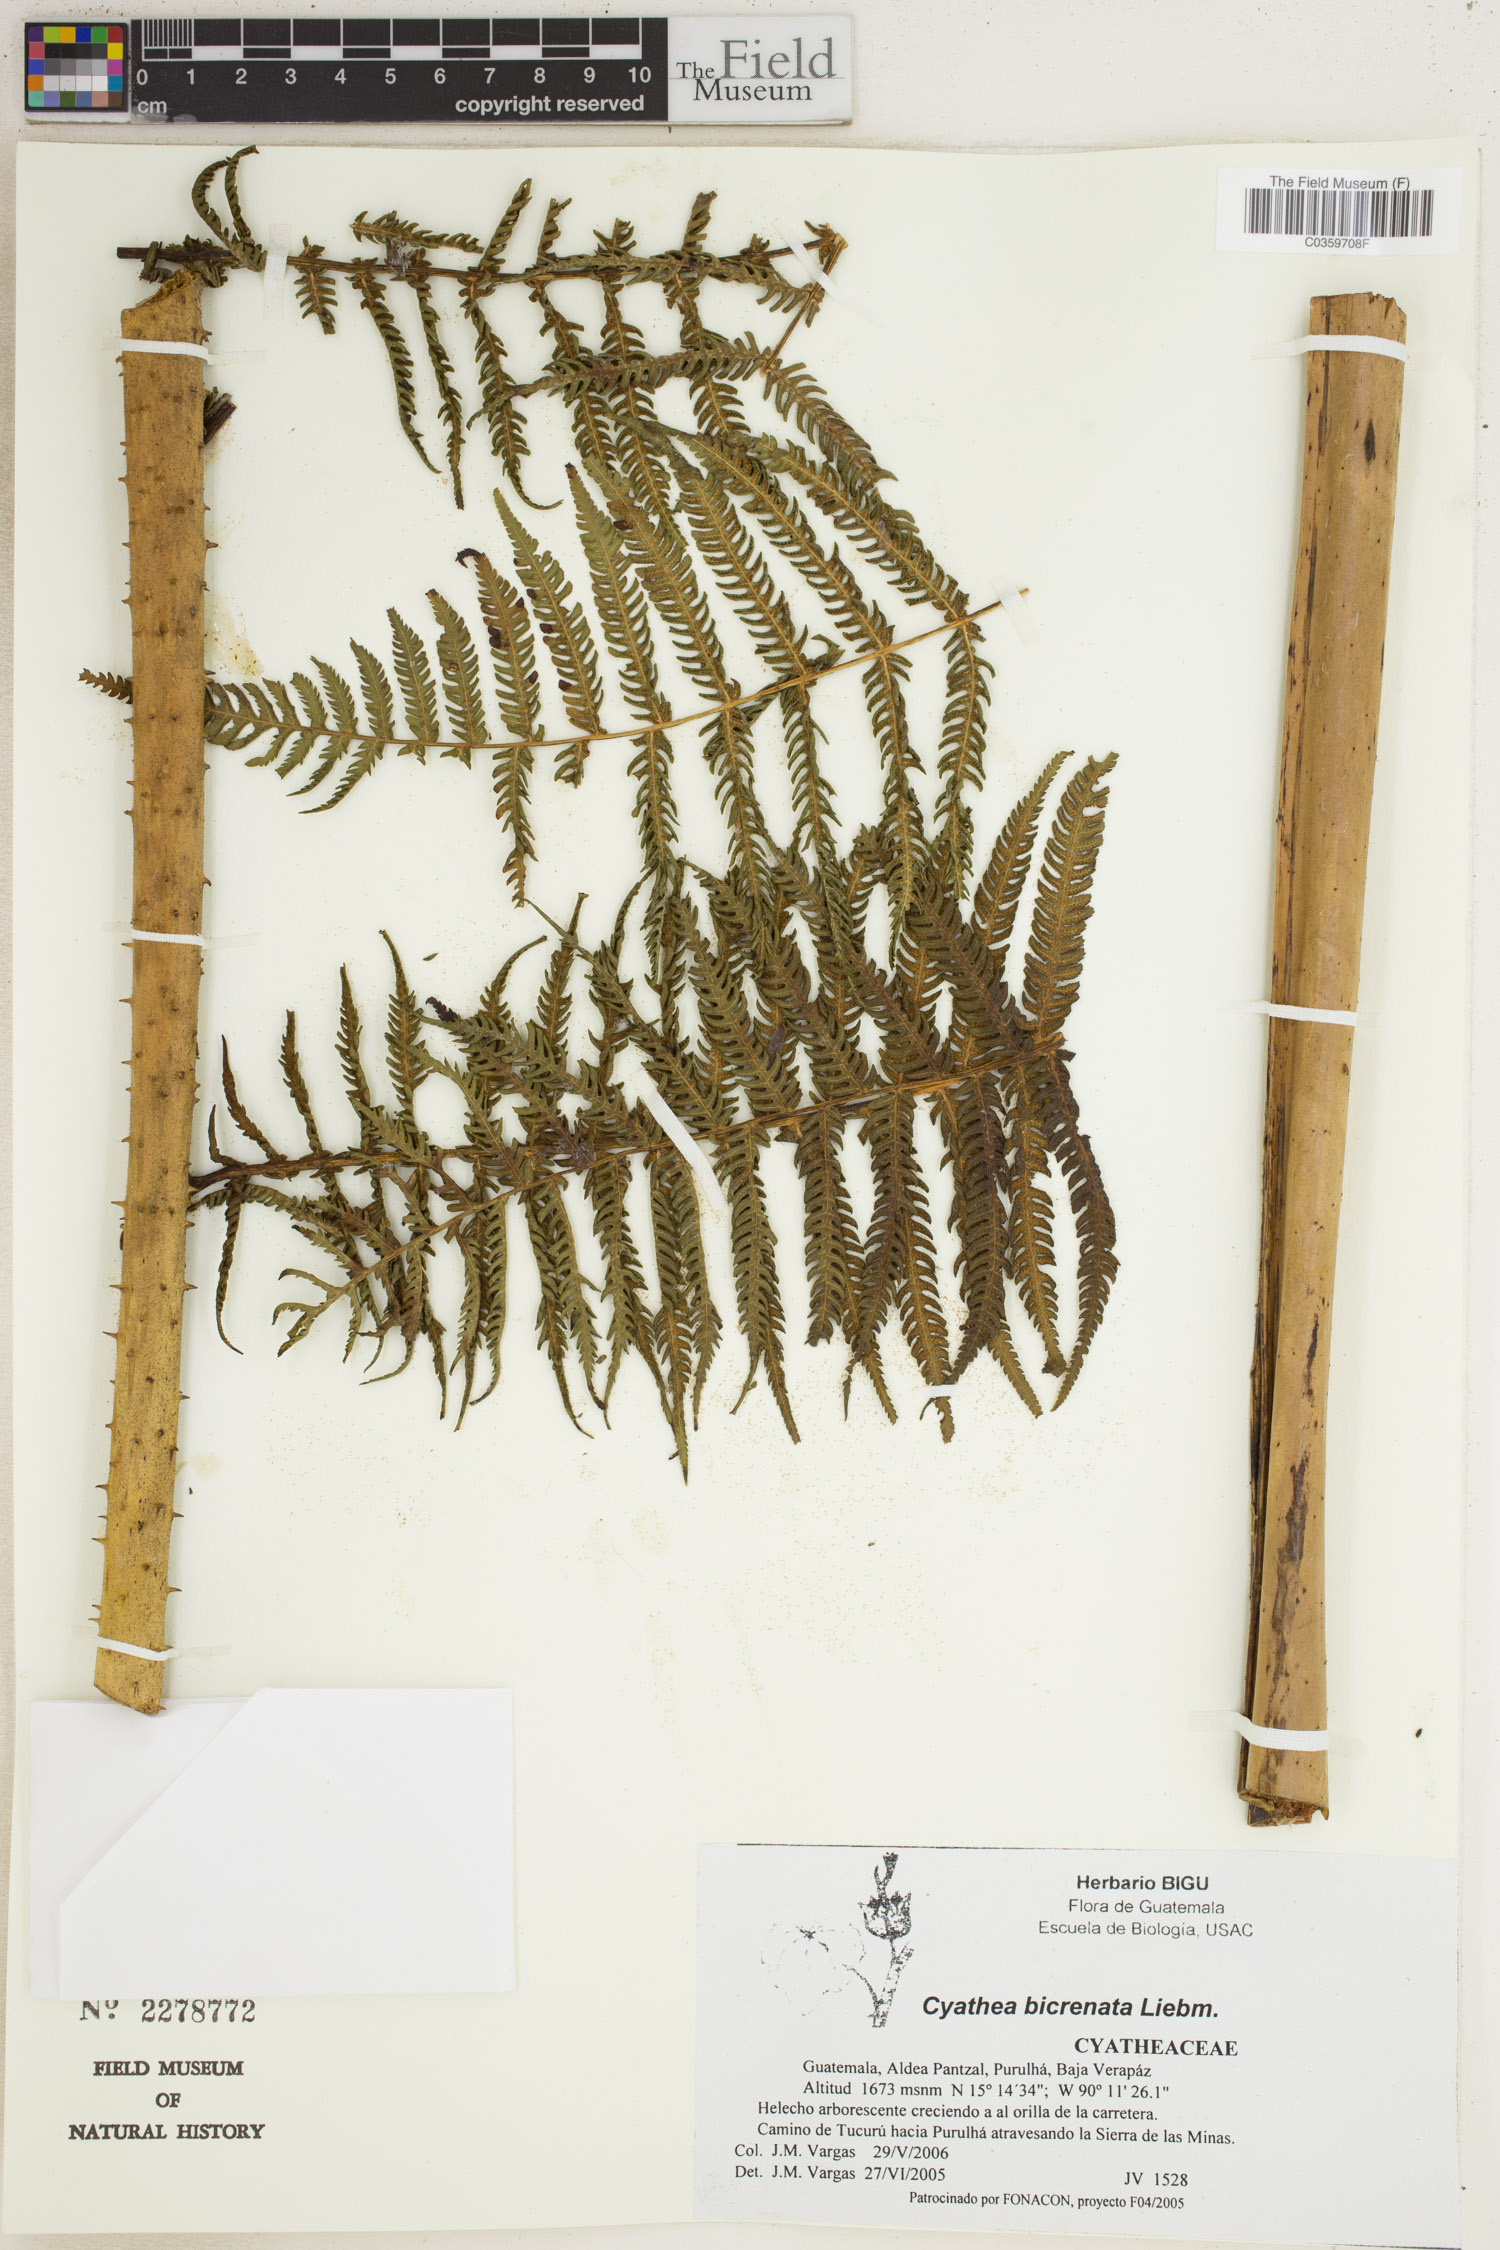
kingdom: Plantae
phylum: Tracheophyta
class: Polypodiopsida
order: Cyatheales
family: Cyatheaceae
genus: Cyathea
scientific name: Cyathea bicrenata
